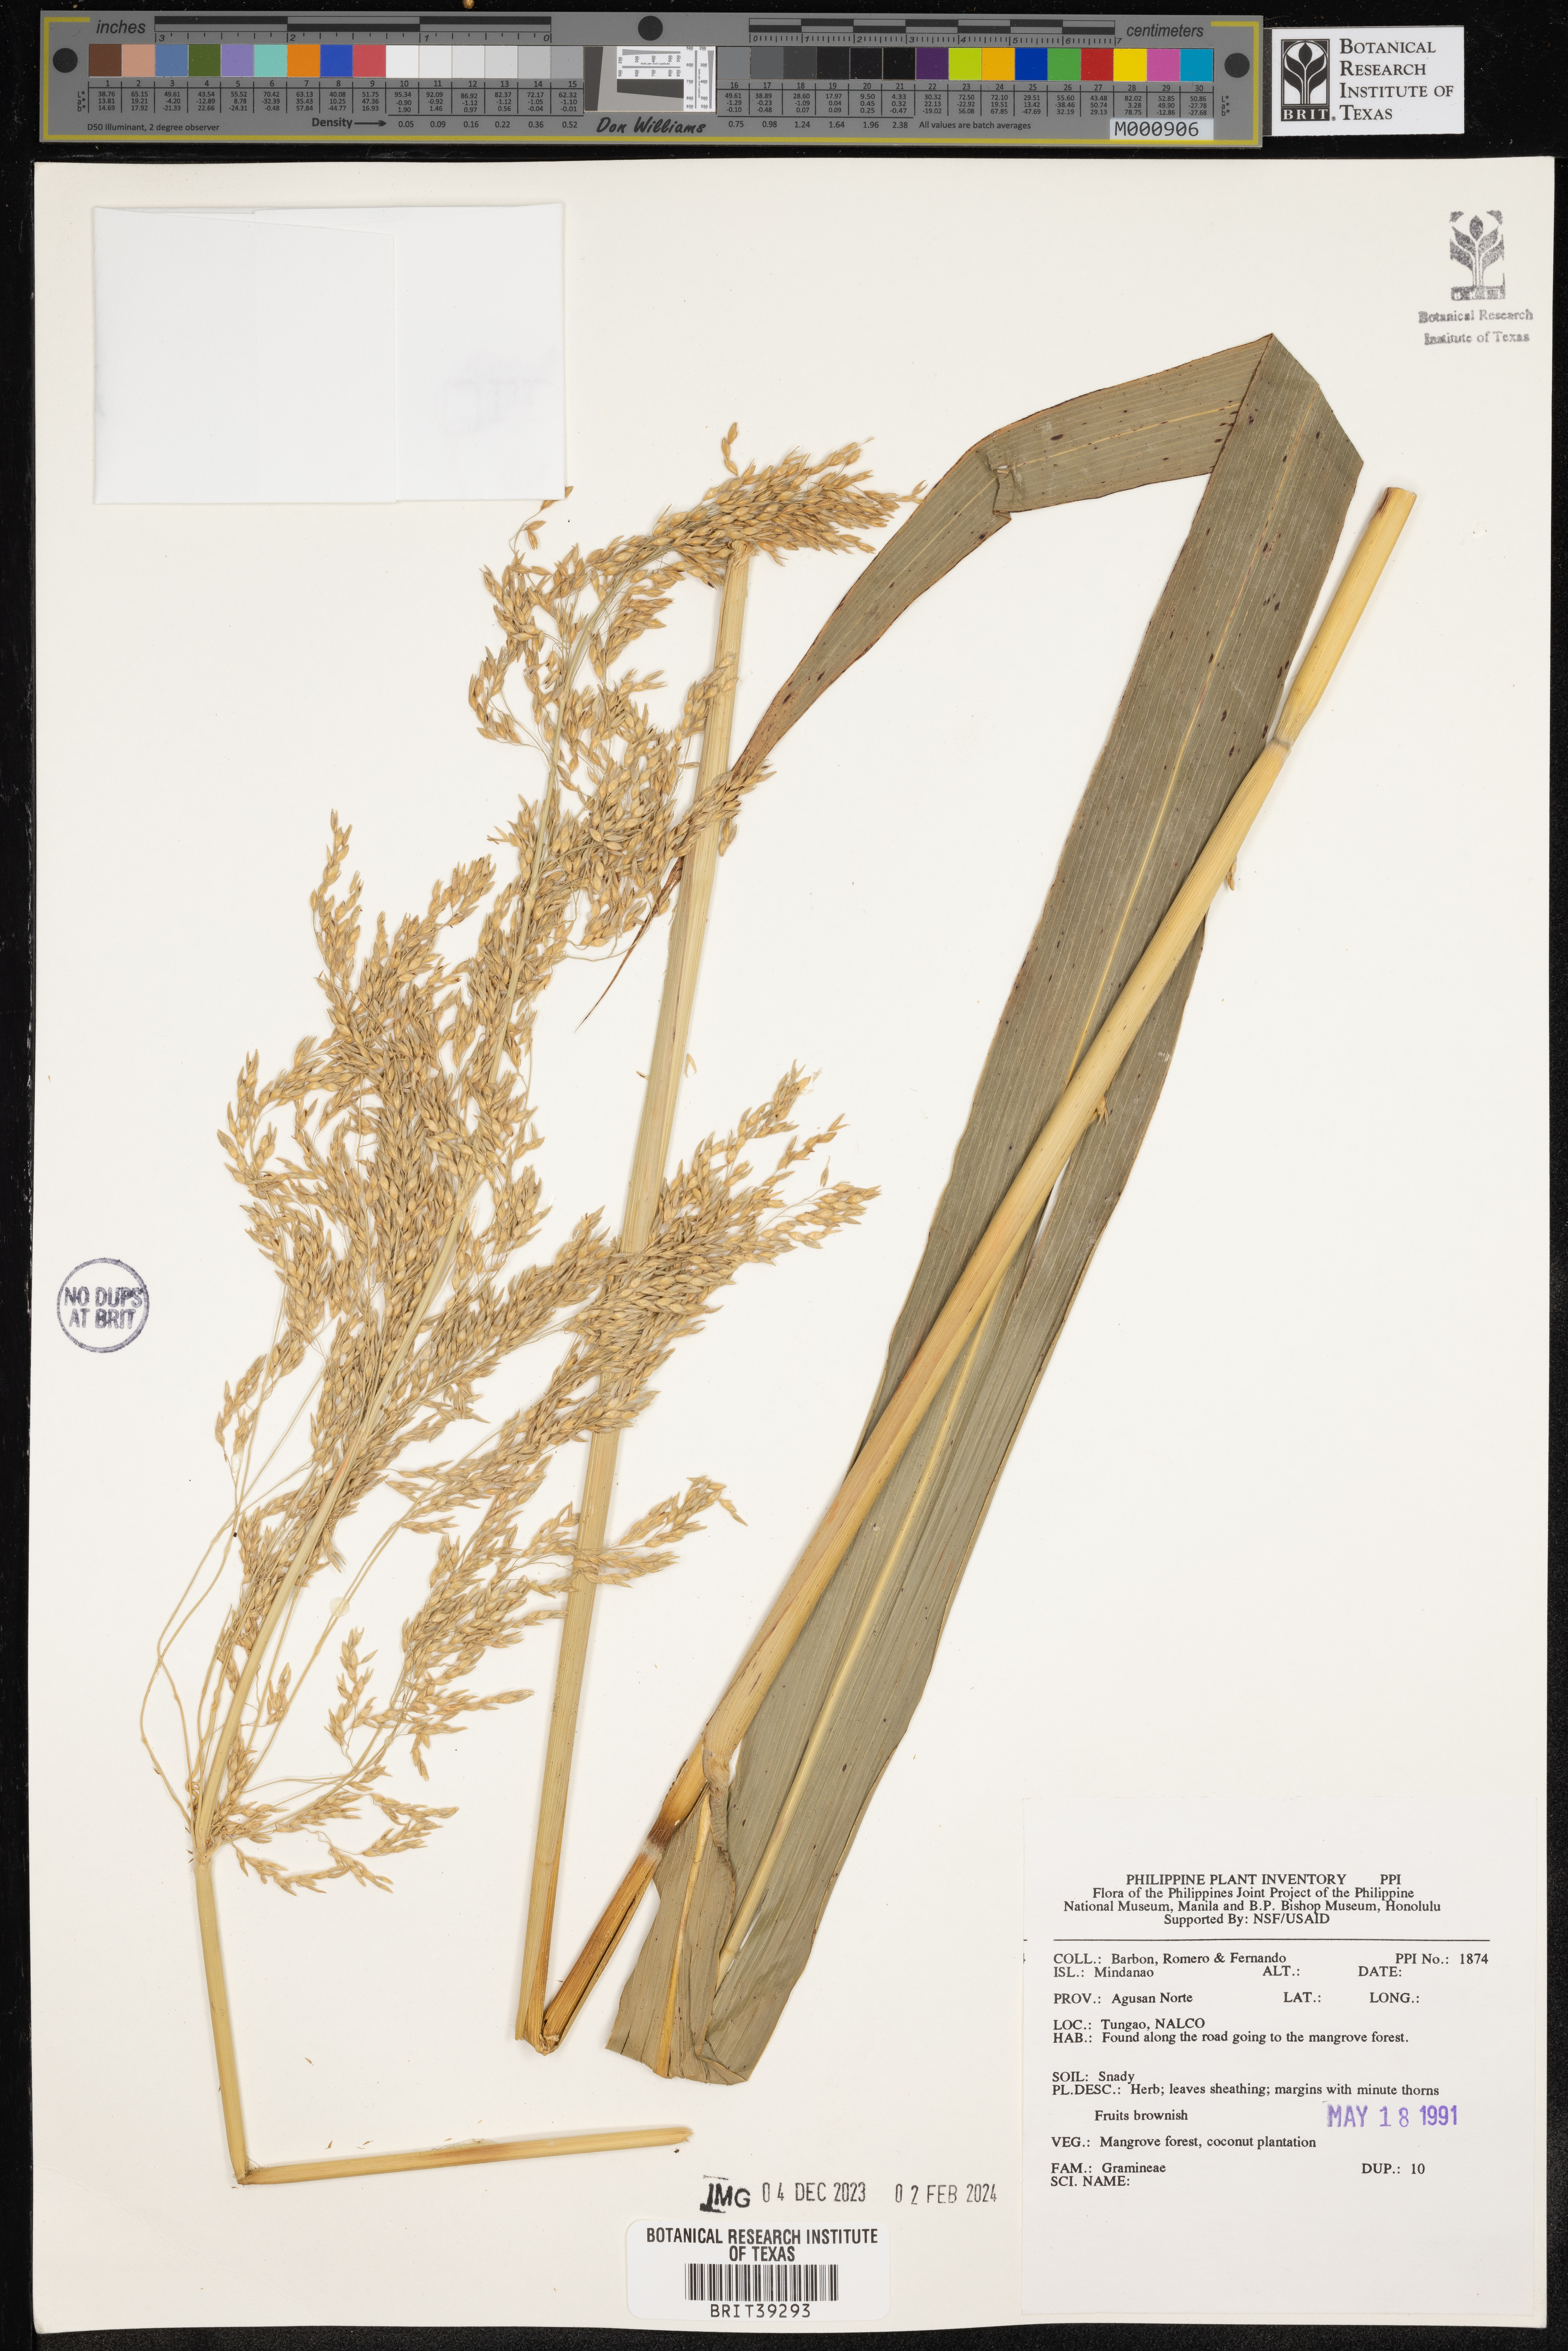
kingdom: Plantae
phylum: Tracheophyta
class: Liliopsida
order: Poales
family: Poaceae
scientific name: Poaceae
